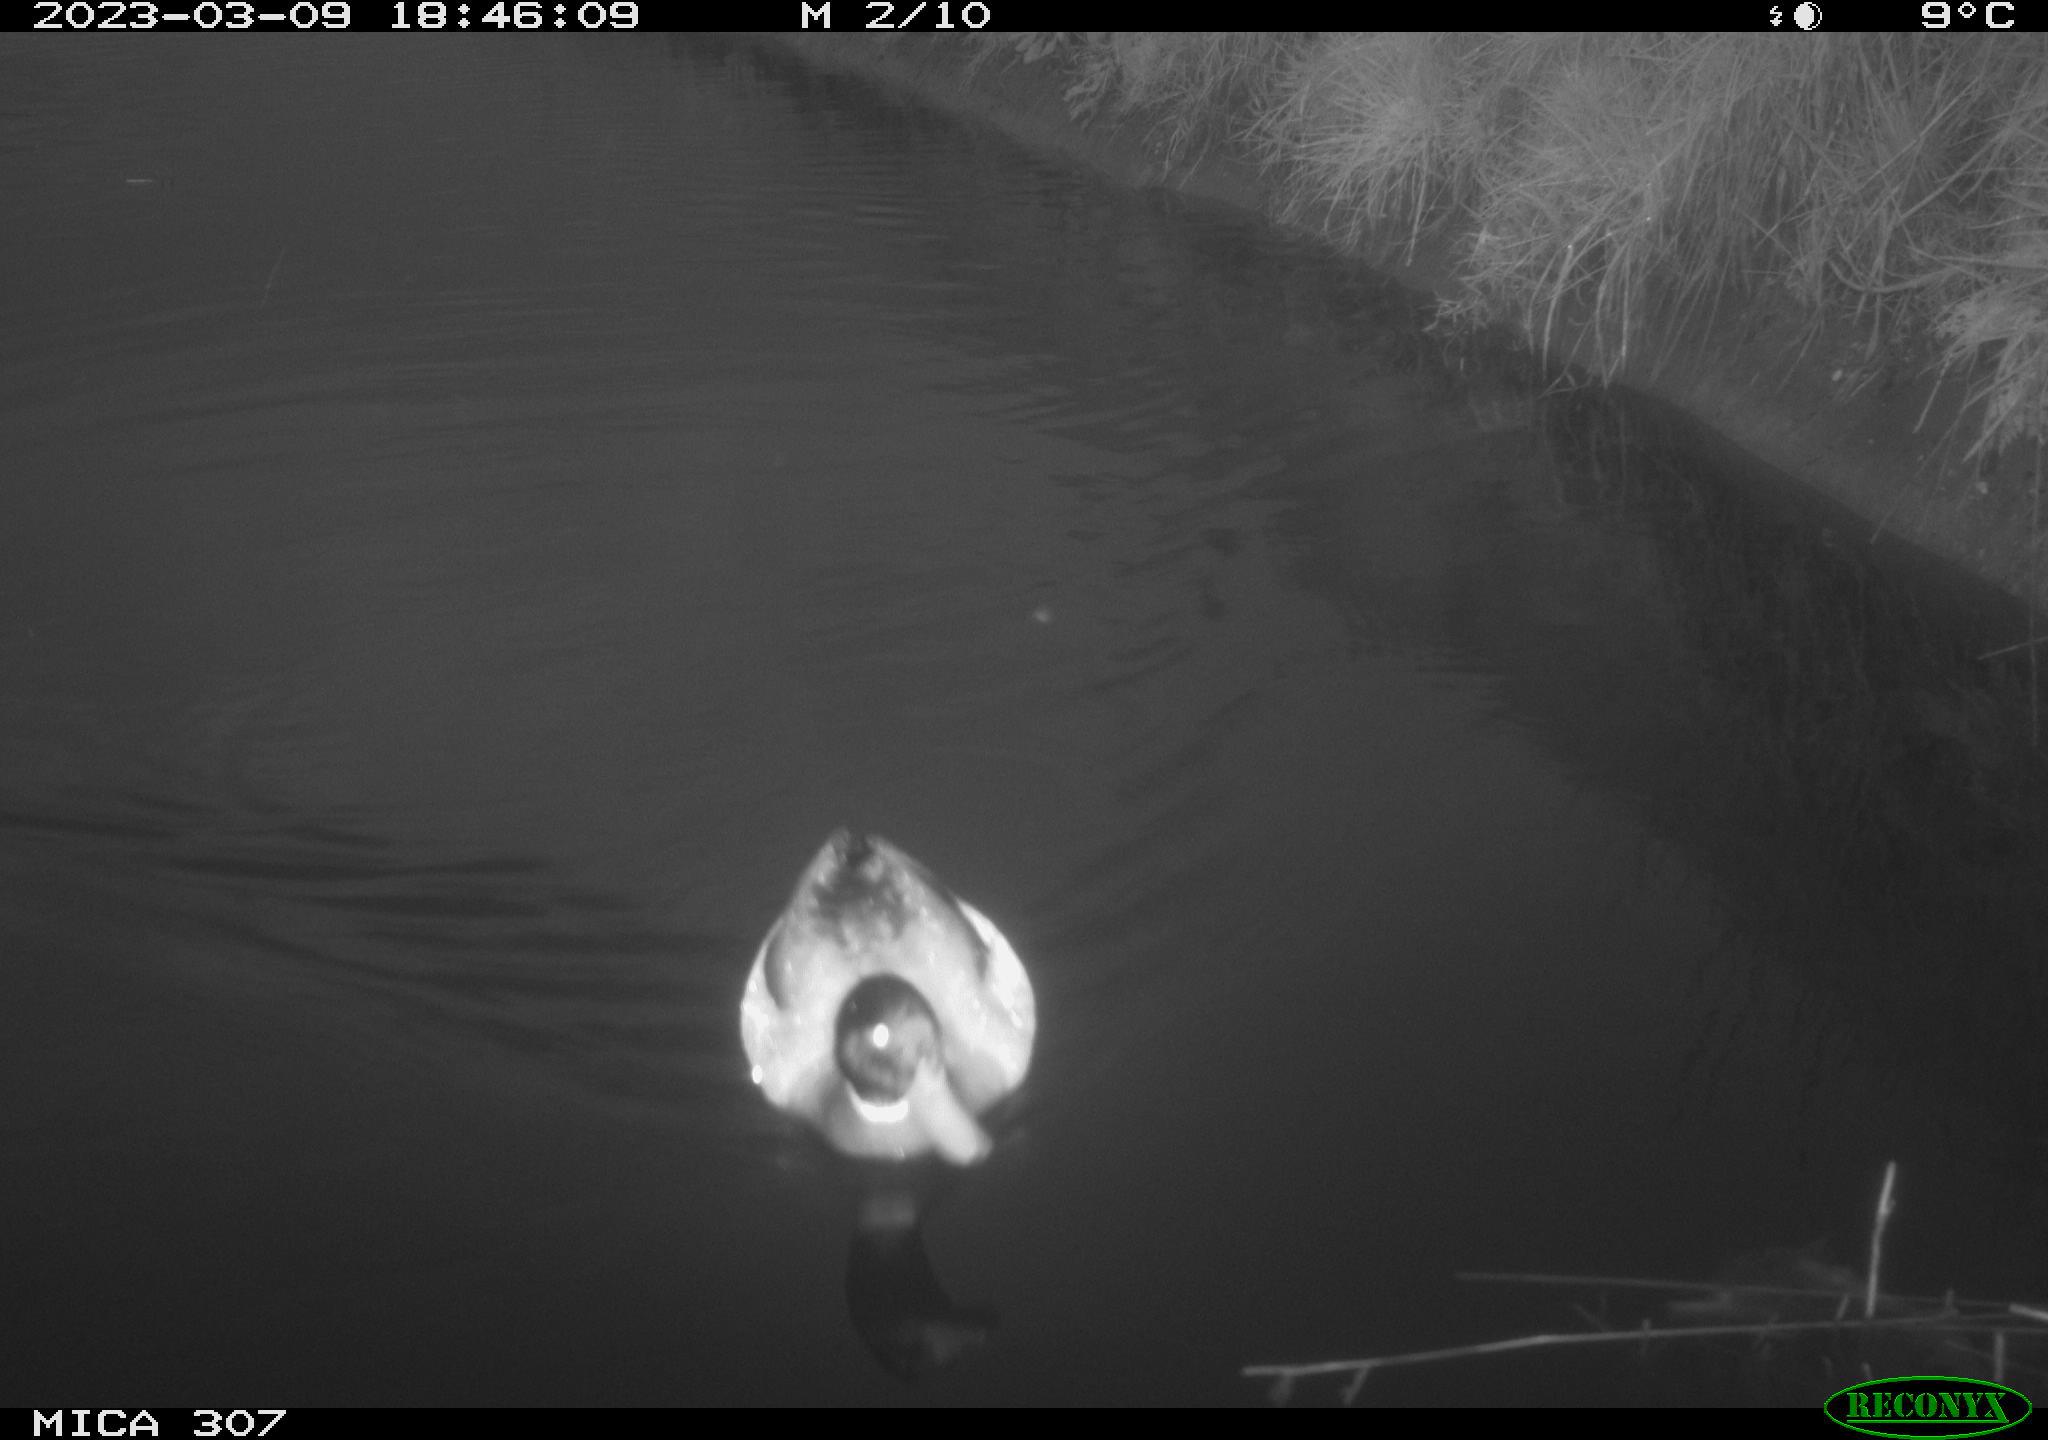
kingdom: Animalia
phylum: Chordata
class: Aves
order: Anseriformes
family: Anatidae
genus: Anas
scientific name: Anas
